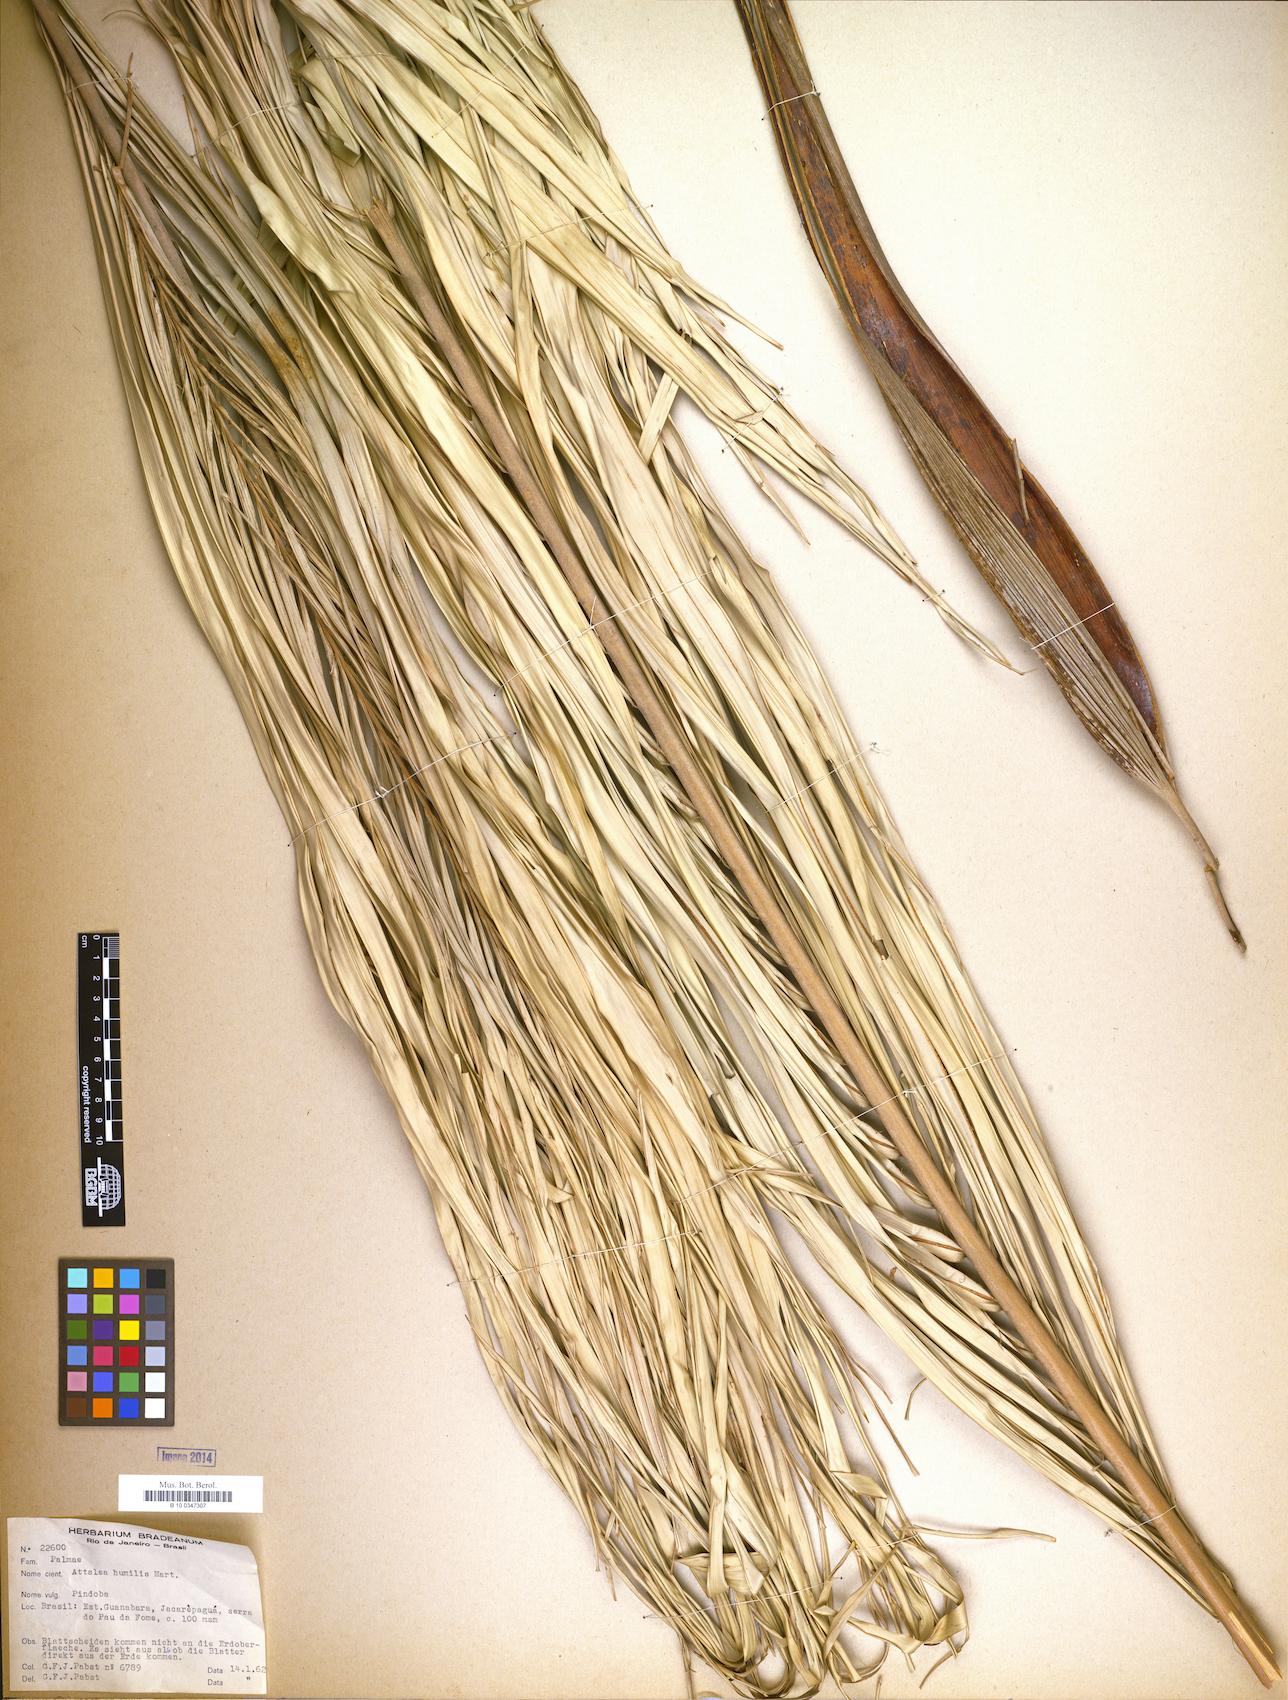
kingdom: Plantae
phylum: Tracheophyta
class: Liliopsida
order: Arecales
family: Arecaceae
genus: Attalea
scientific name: Attalea humilis
